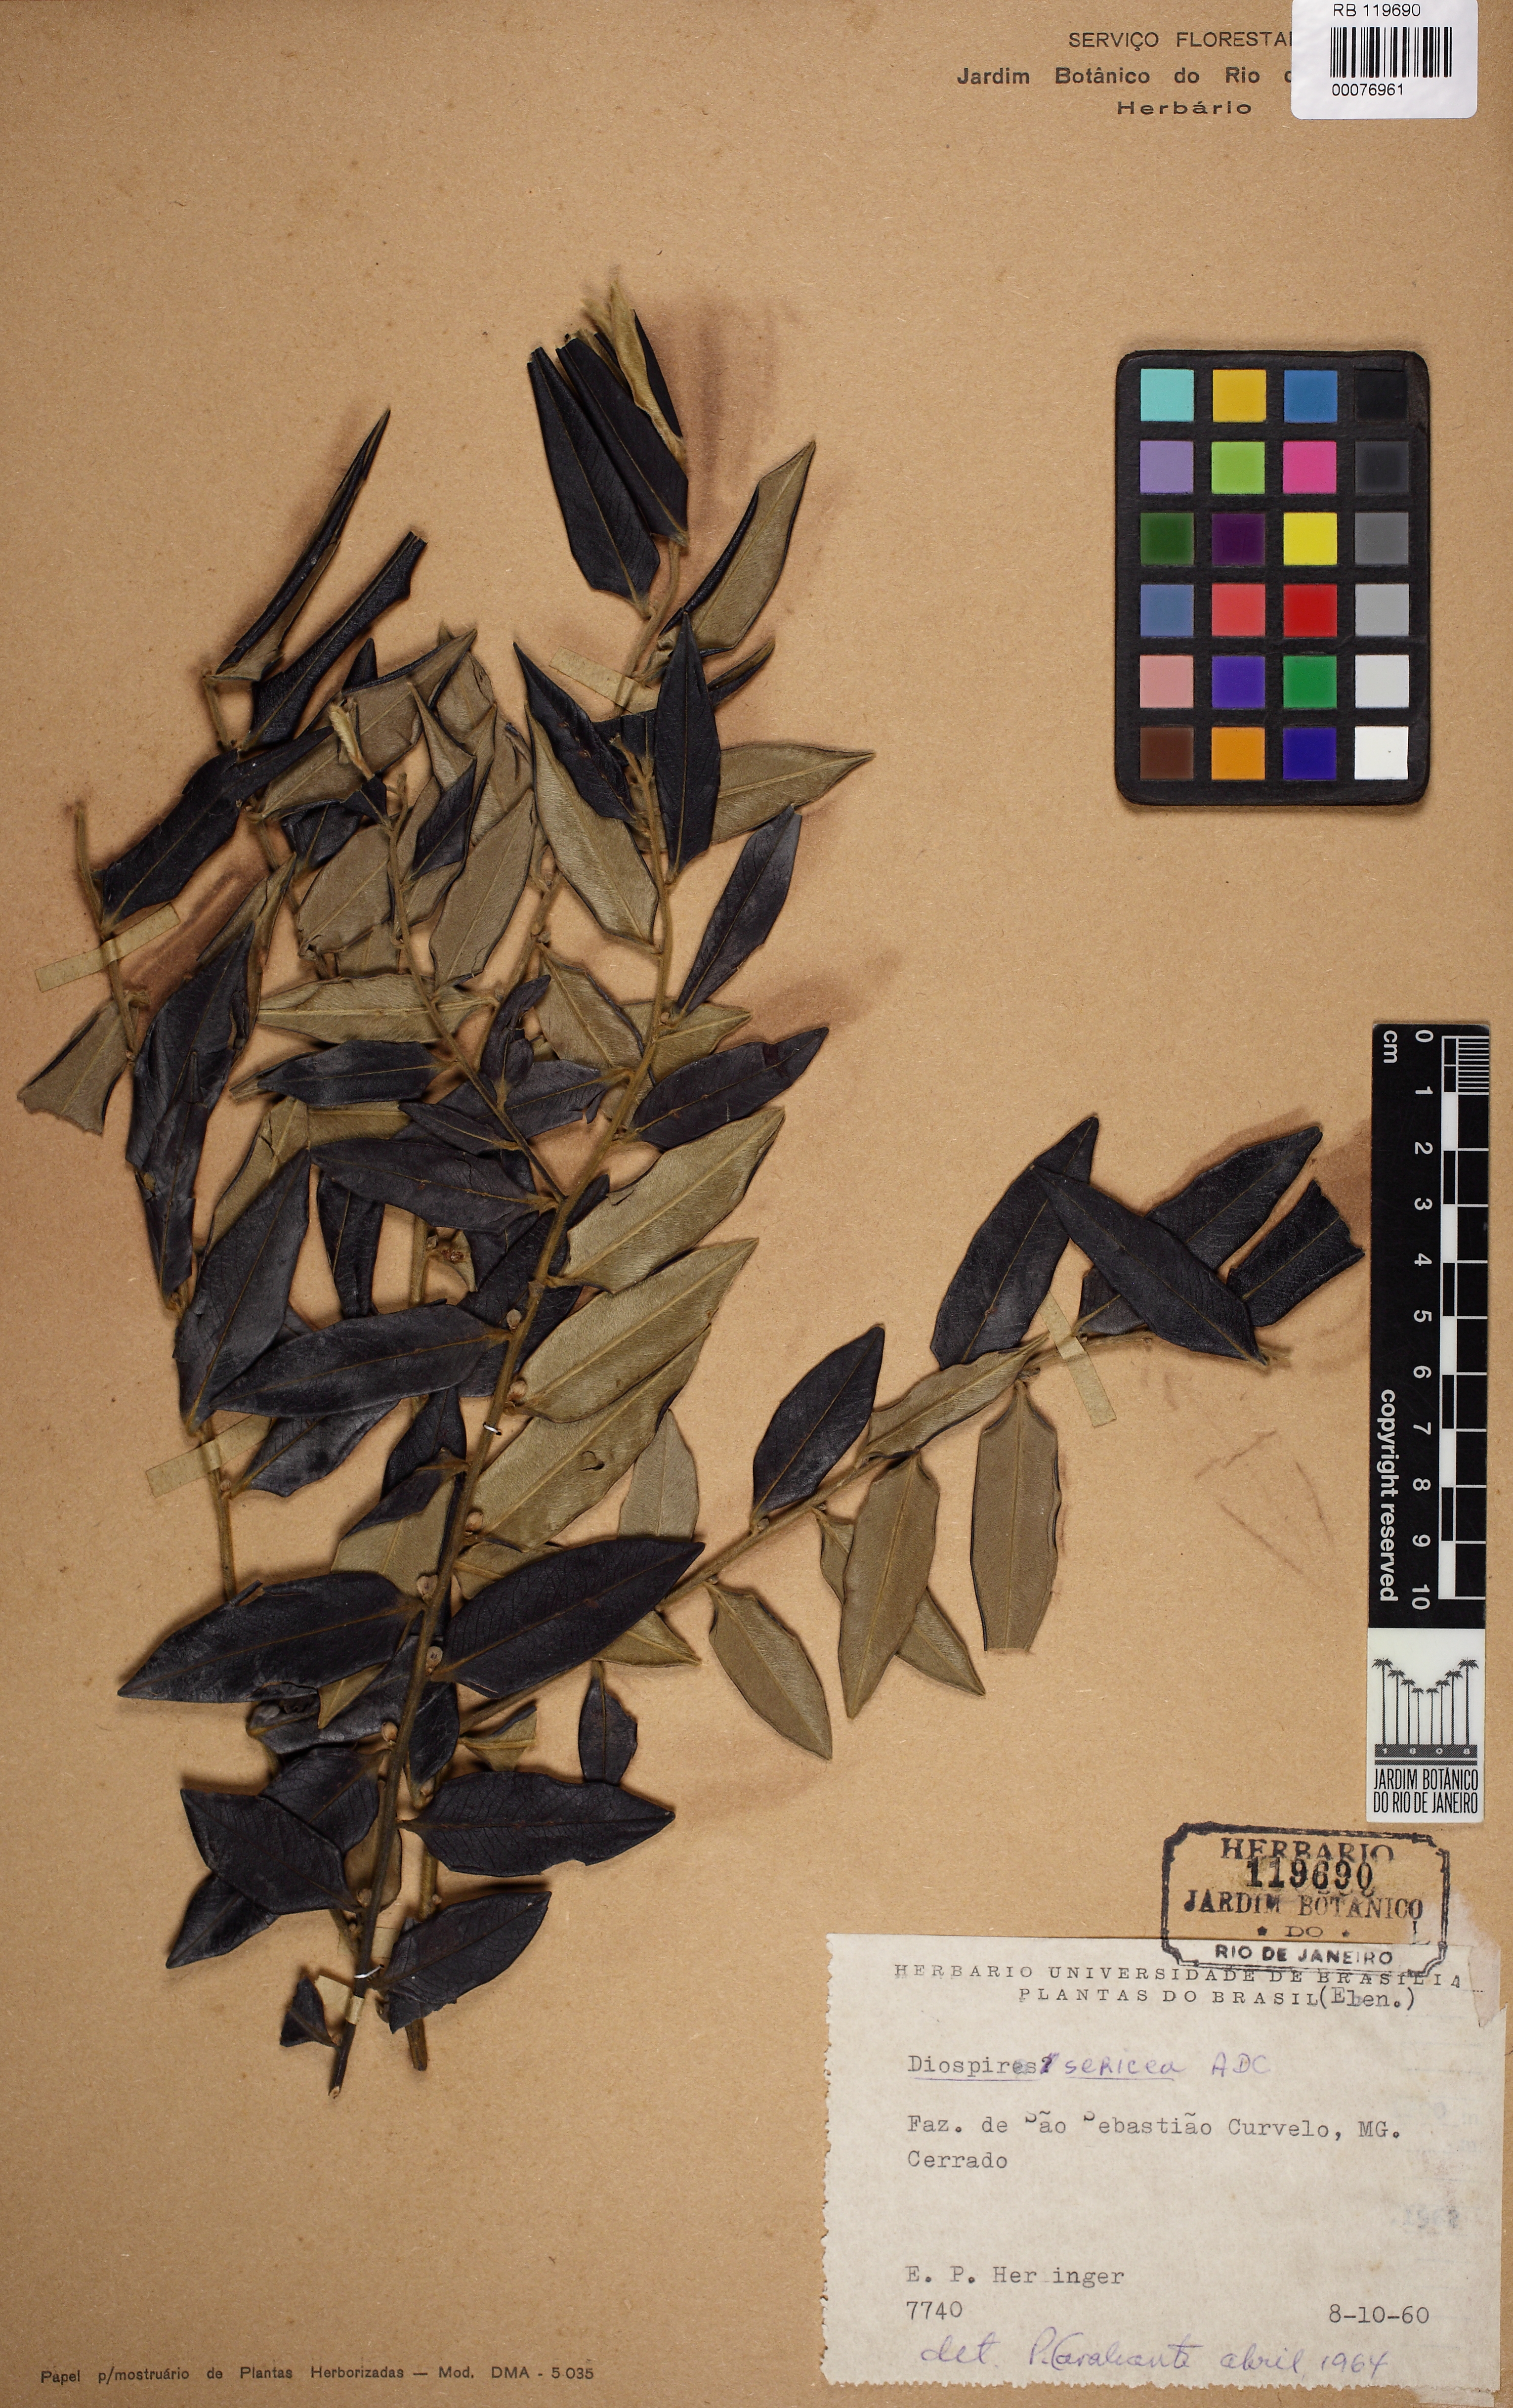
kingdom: Plantae
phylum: Tracheophyta
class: Magnoliopsida
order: Ericales
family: Ebenaceae
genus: Diospyros
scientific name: Diospyros sericea
